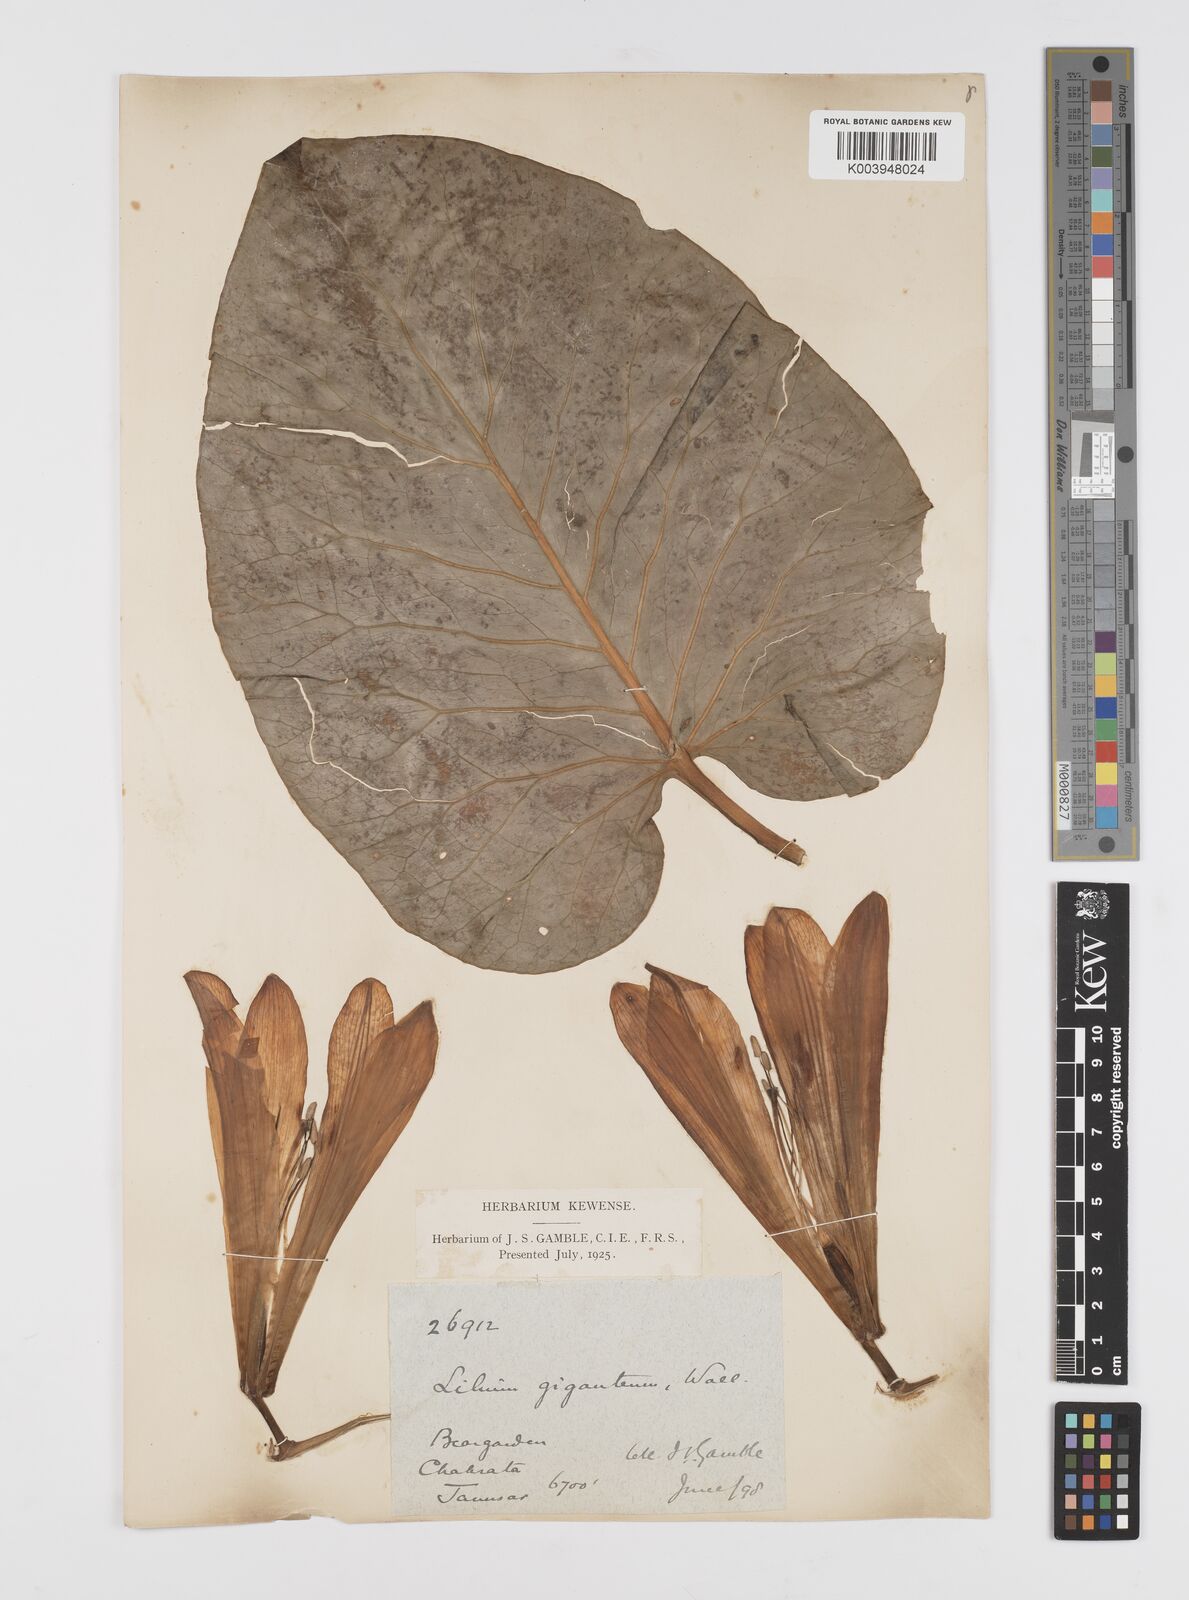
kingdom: Plantae
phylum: Tracheophyta
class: Liliopsida
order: Liliales
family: Liliaceae
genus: Cardiocrinum
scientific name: Cardiocrinum giganteum
